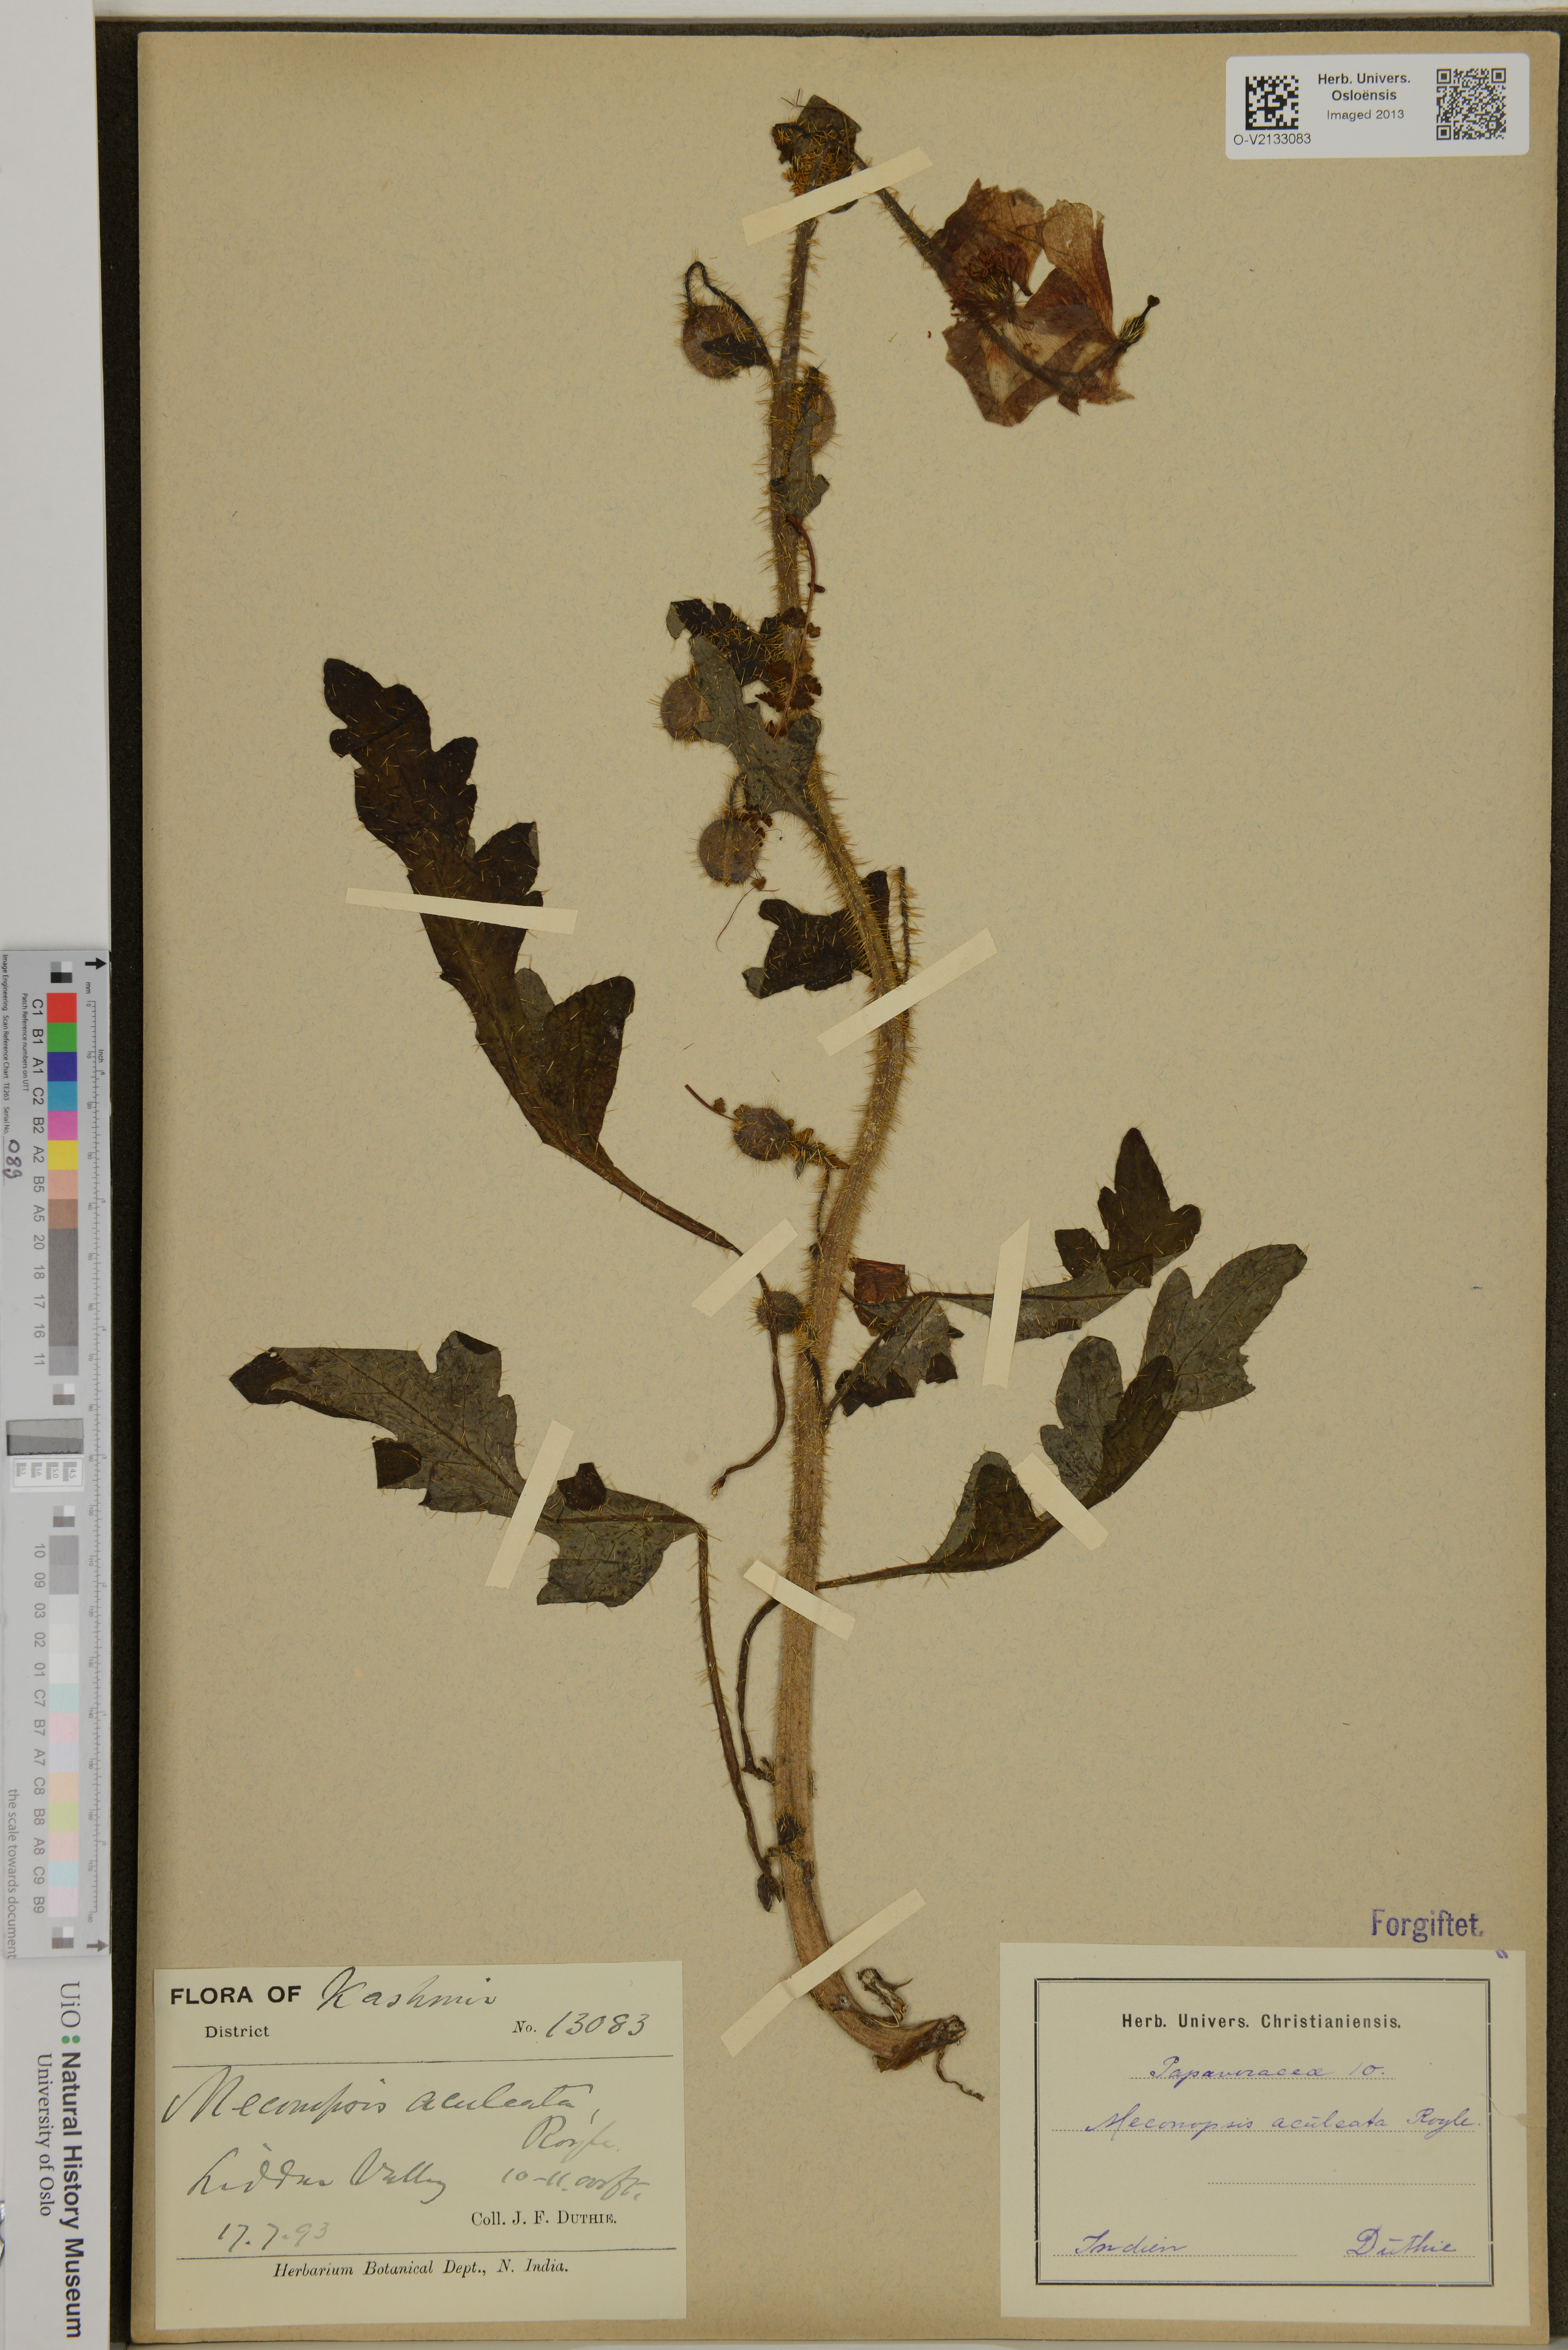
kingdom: Plantae
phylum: Tracheophyta
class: Magnoliopsida
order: Ranunculales
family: Papaveraceae
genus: Meconopsis
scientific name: Meconopsis aculeata
